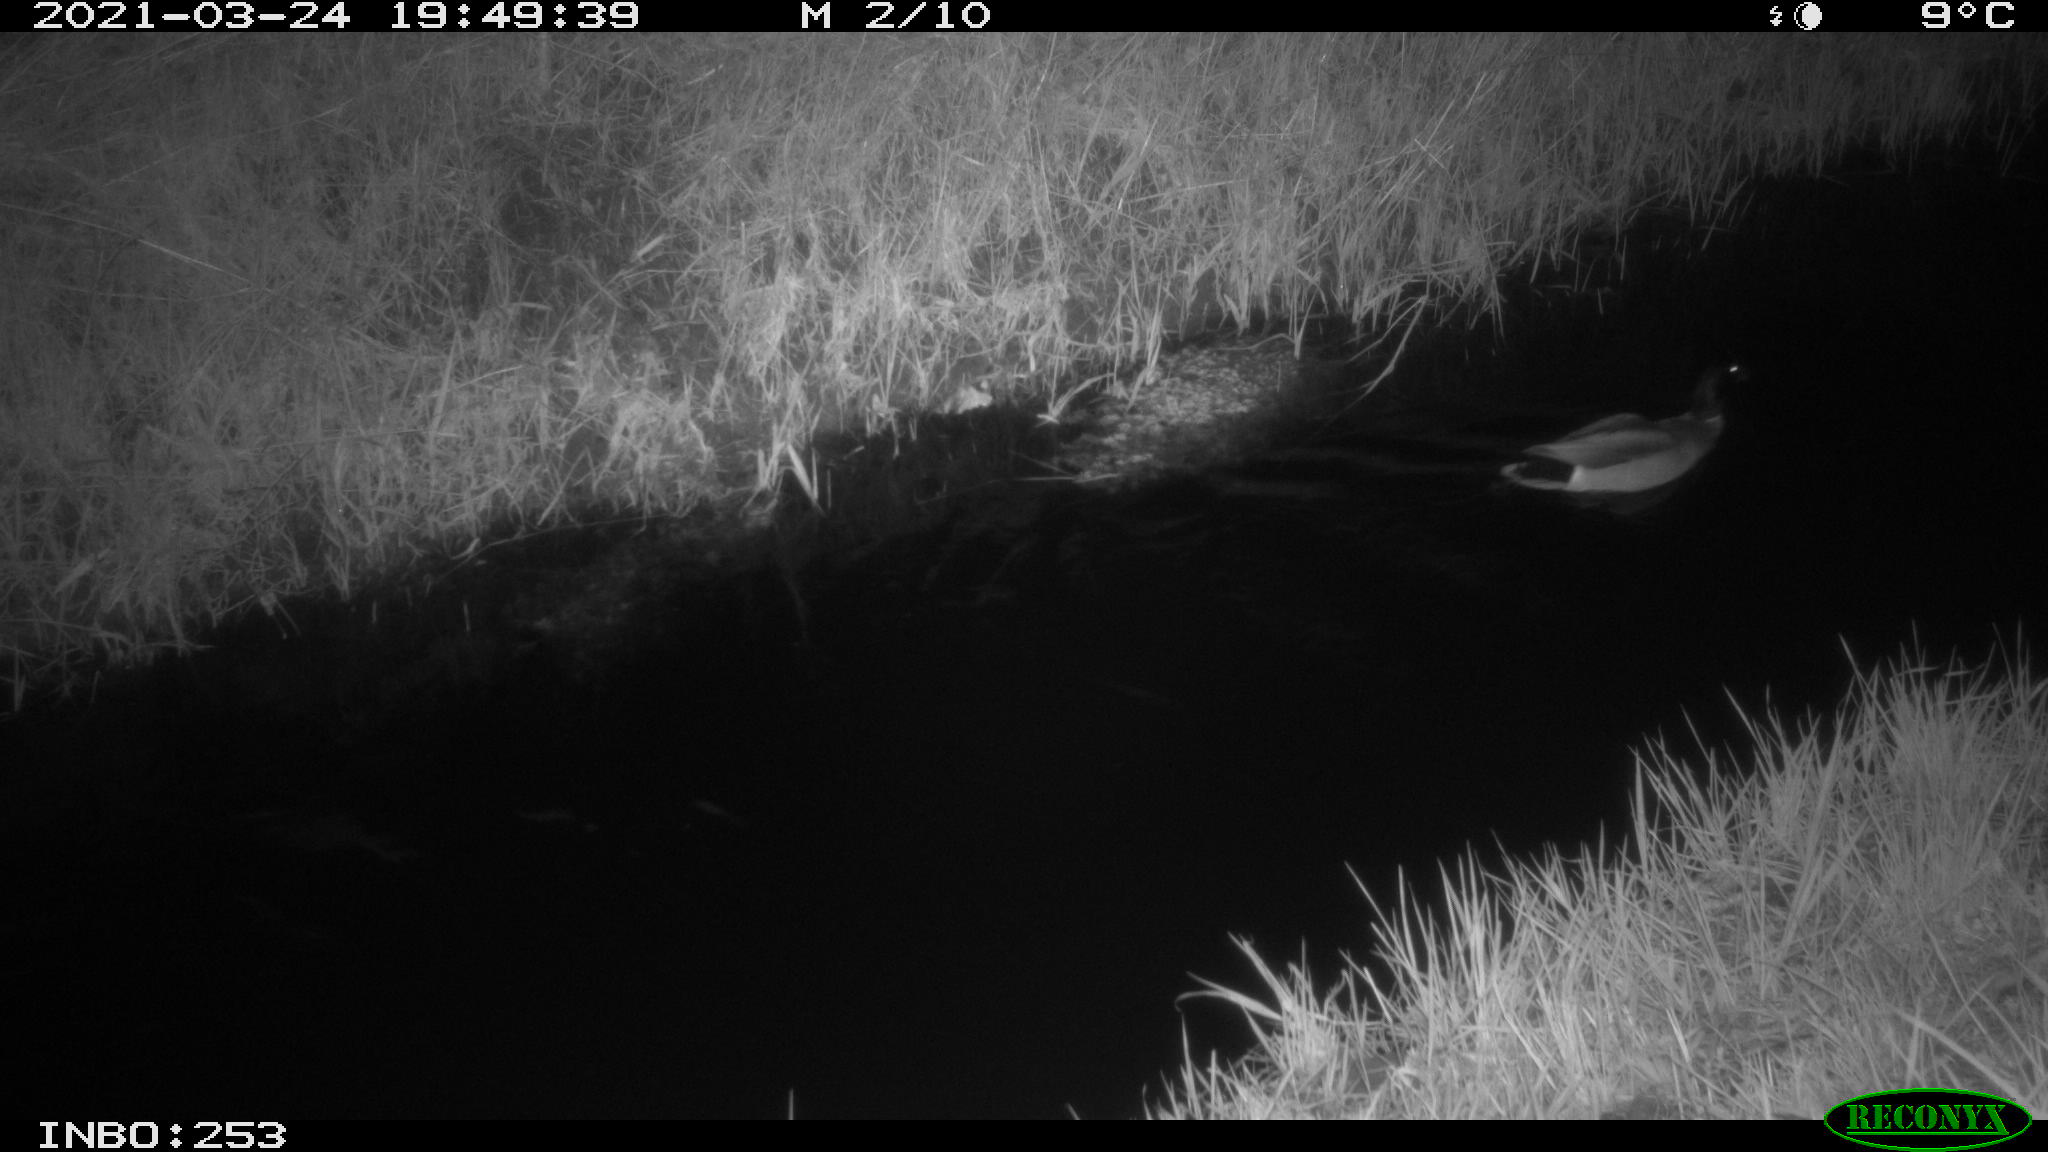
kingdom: Animalia
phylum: Chordata
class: Aves
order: Anseriformes
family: Anatidae
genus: Anas
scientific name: Anas platyrhynchos
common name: Mallard
